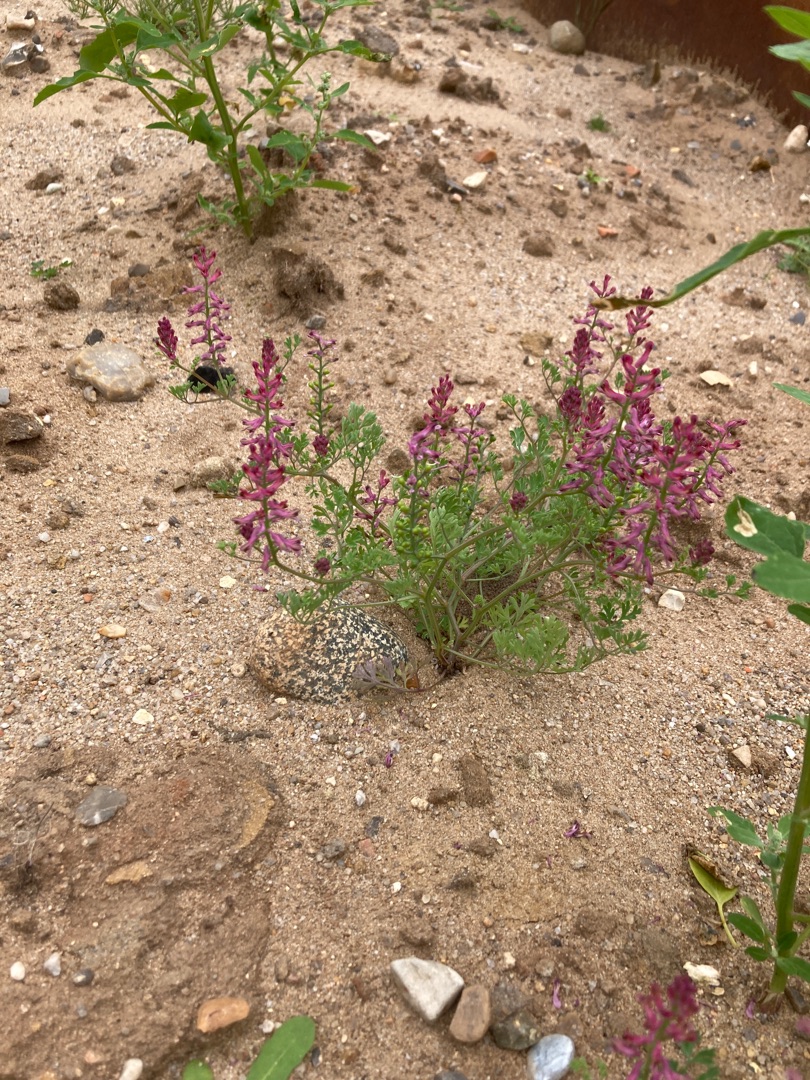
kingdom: Plantae
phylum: Tracheophyta
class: Magnoliopsida
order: Ranunculales
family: Papaveraceae
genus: Fumaria
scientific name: Fumaria officinalis
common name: Læge-jordrøg
